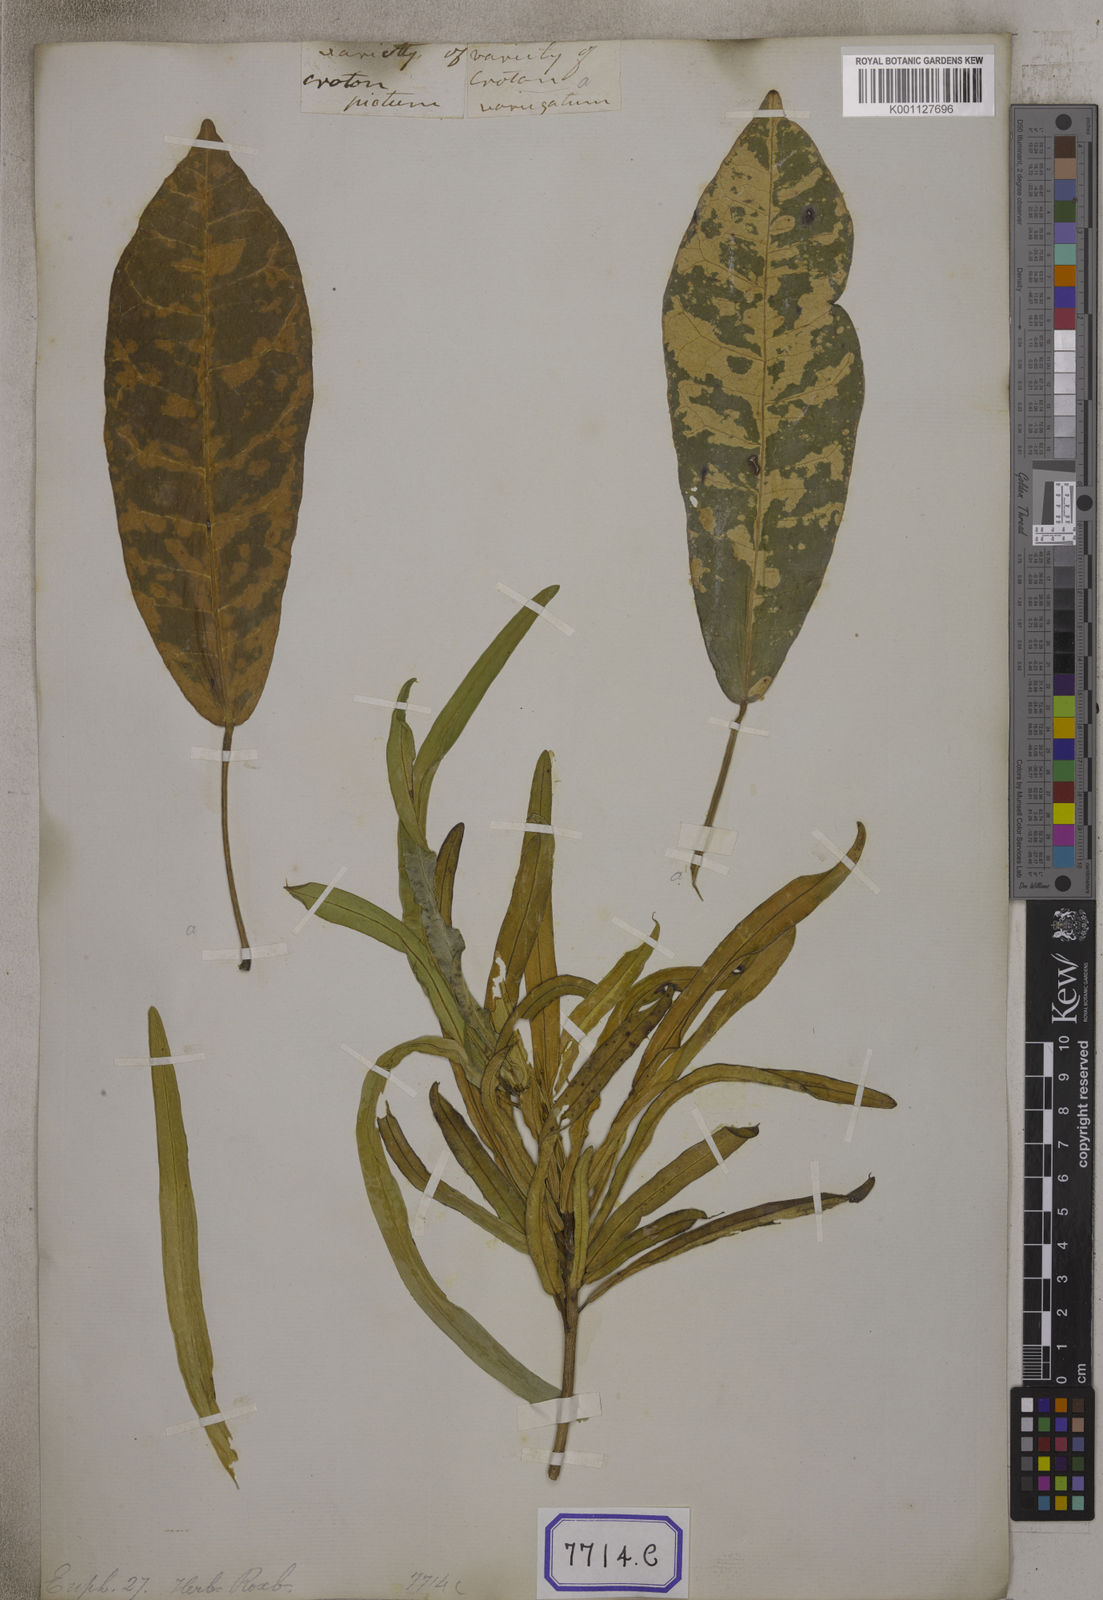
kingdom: Plantae
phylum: Tracheophyta
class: Magnoliopsida
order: Malpighiales
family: Euphorbiaceae
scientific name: Euphorbiaceae
